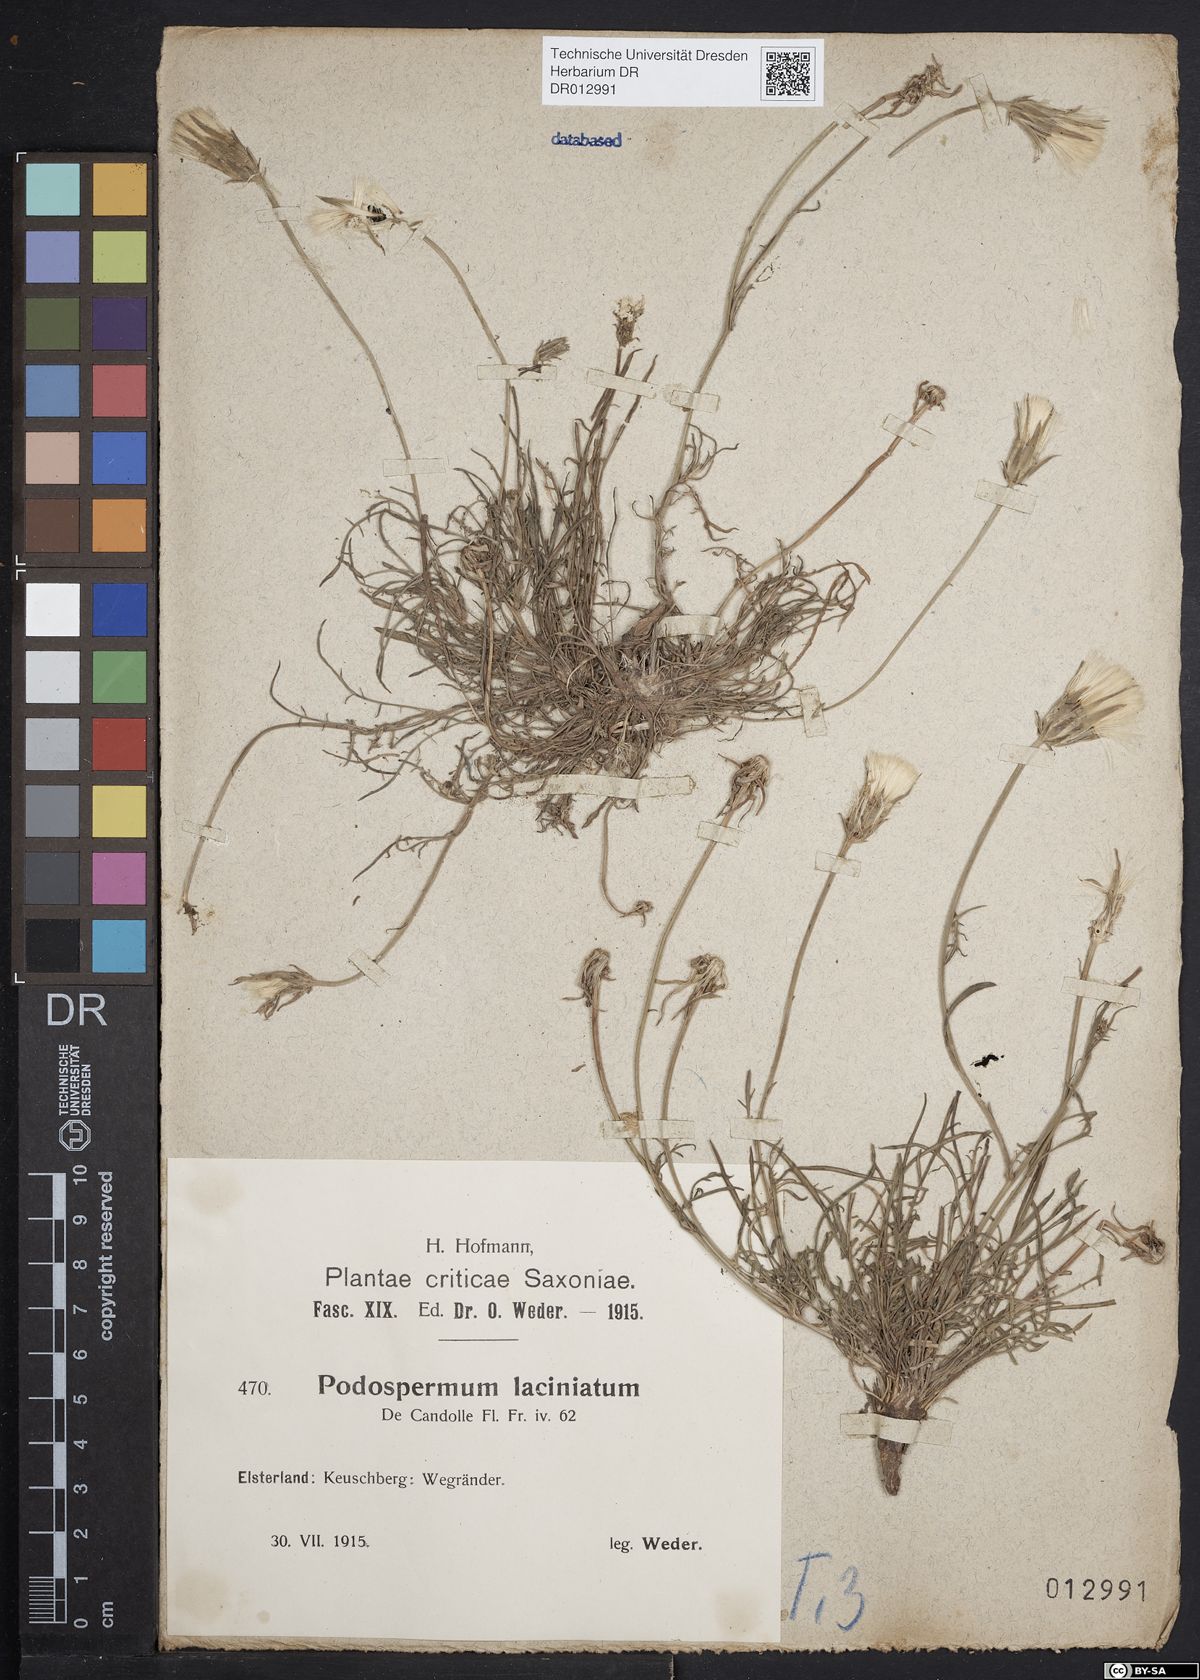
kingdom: Plantae
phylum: Tracheophyta
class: Magnoliopsida
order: Asterales
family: Asteraceae
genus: Scorzonera
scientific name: Scorzonera laciniata
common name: Cutleaf vipergrass
